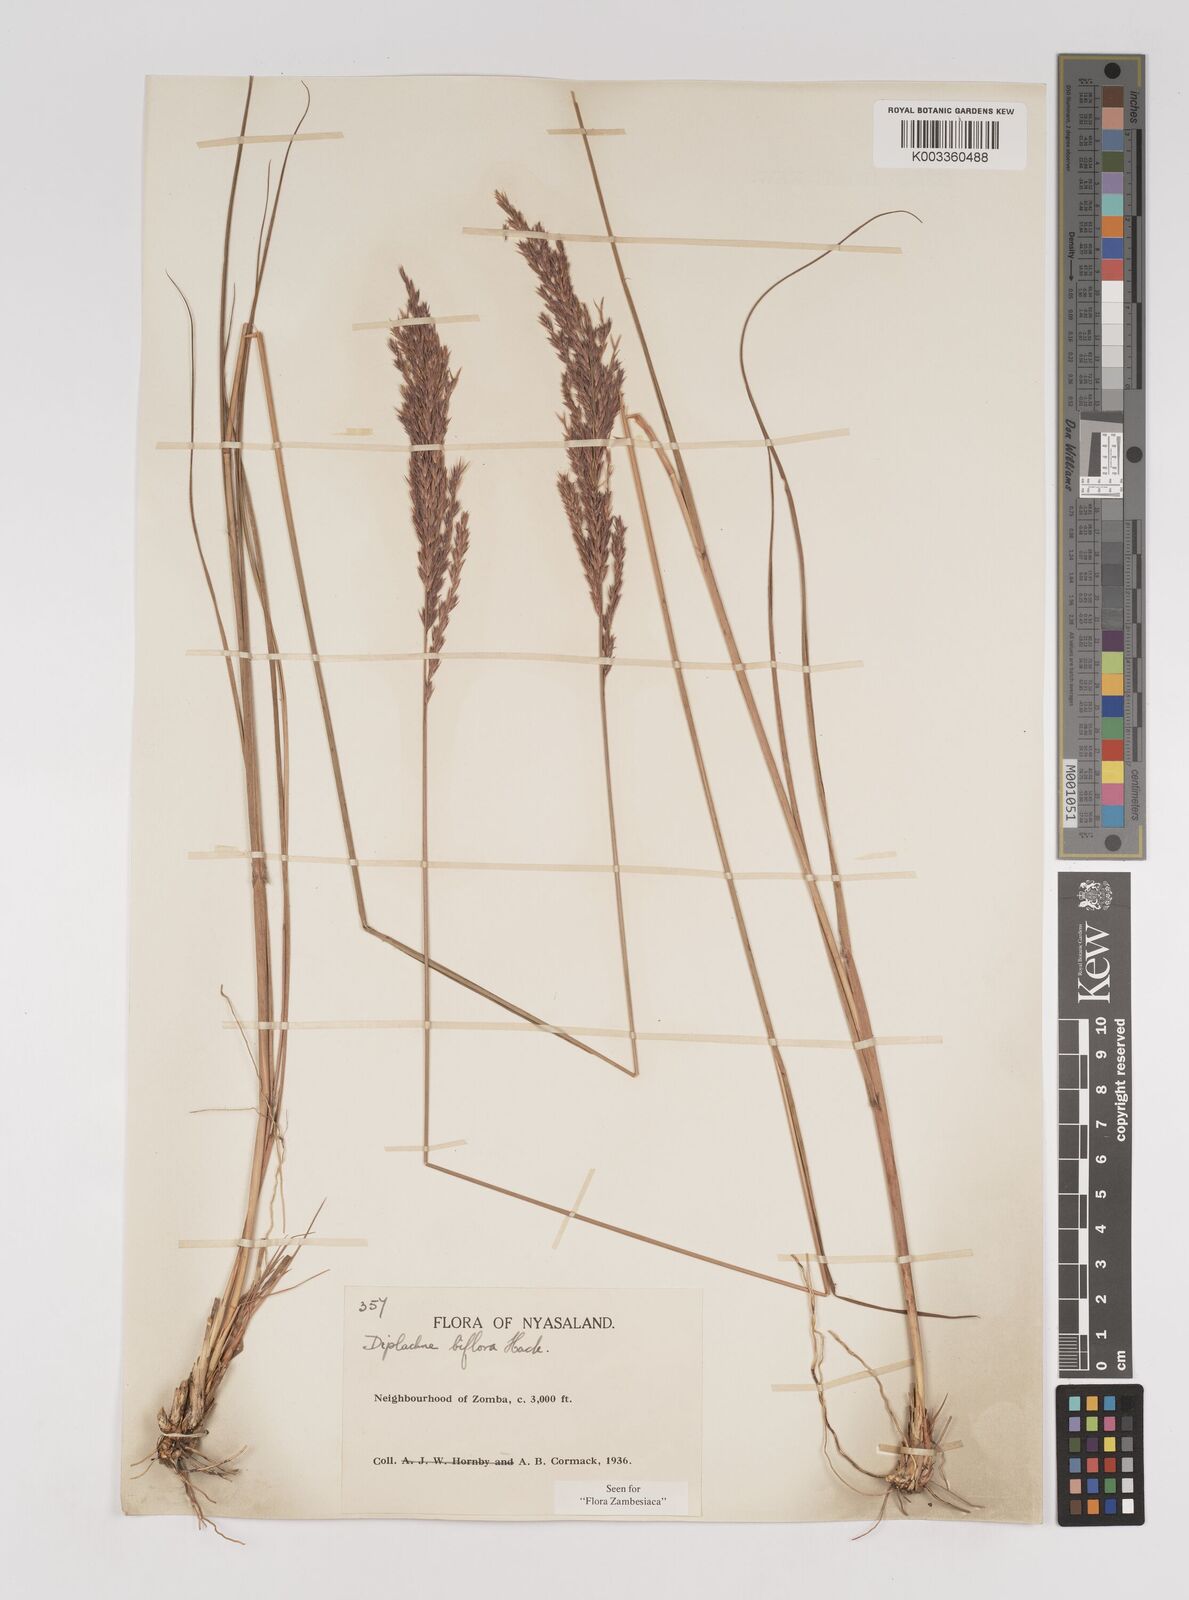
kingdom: Plantae
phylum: Tracheophyta
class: Liliopsida
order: Poales
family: Poaceae
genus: Bewsia
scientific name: Bewsia biflora
